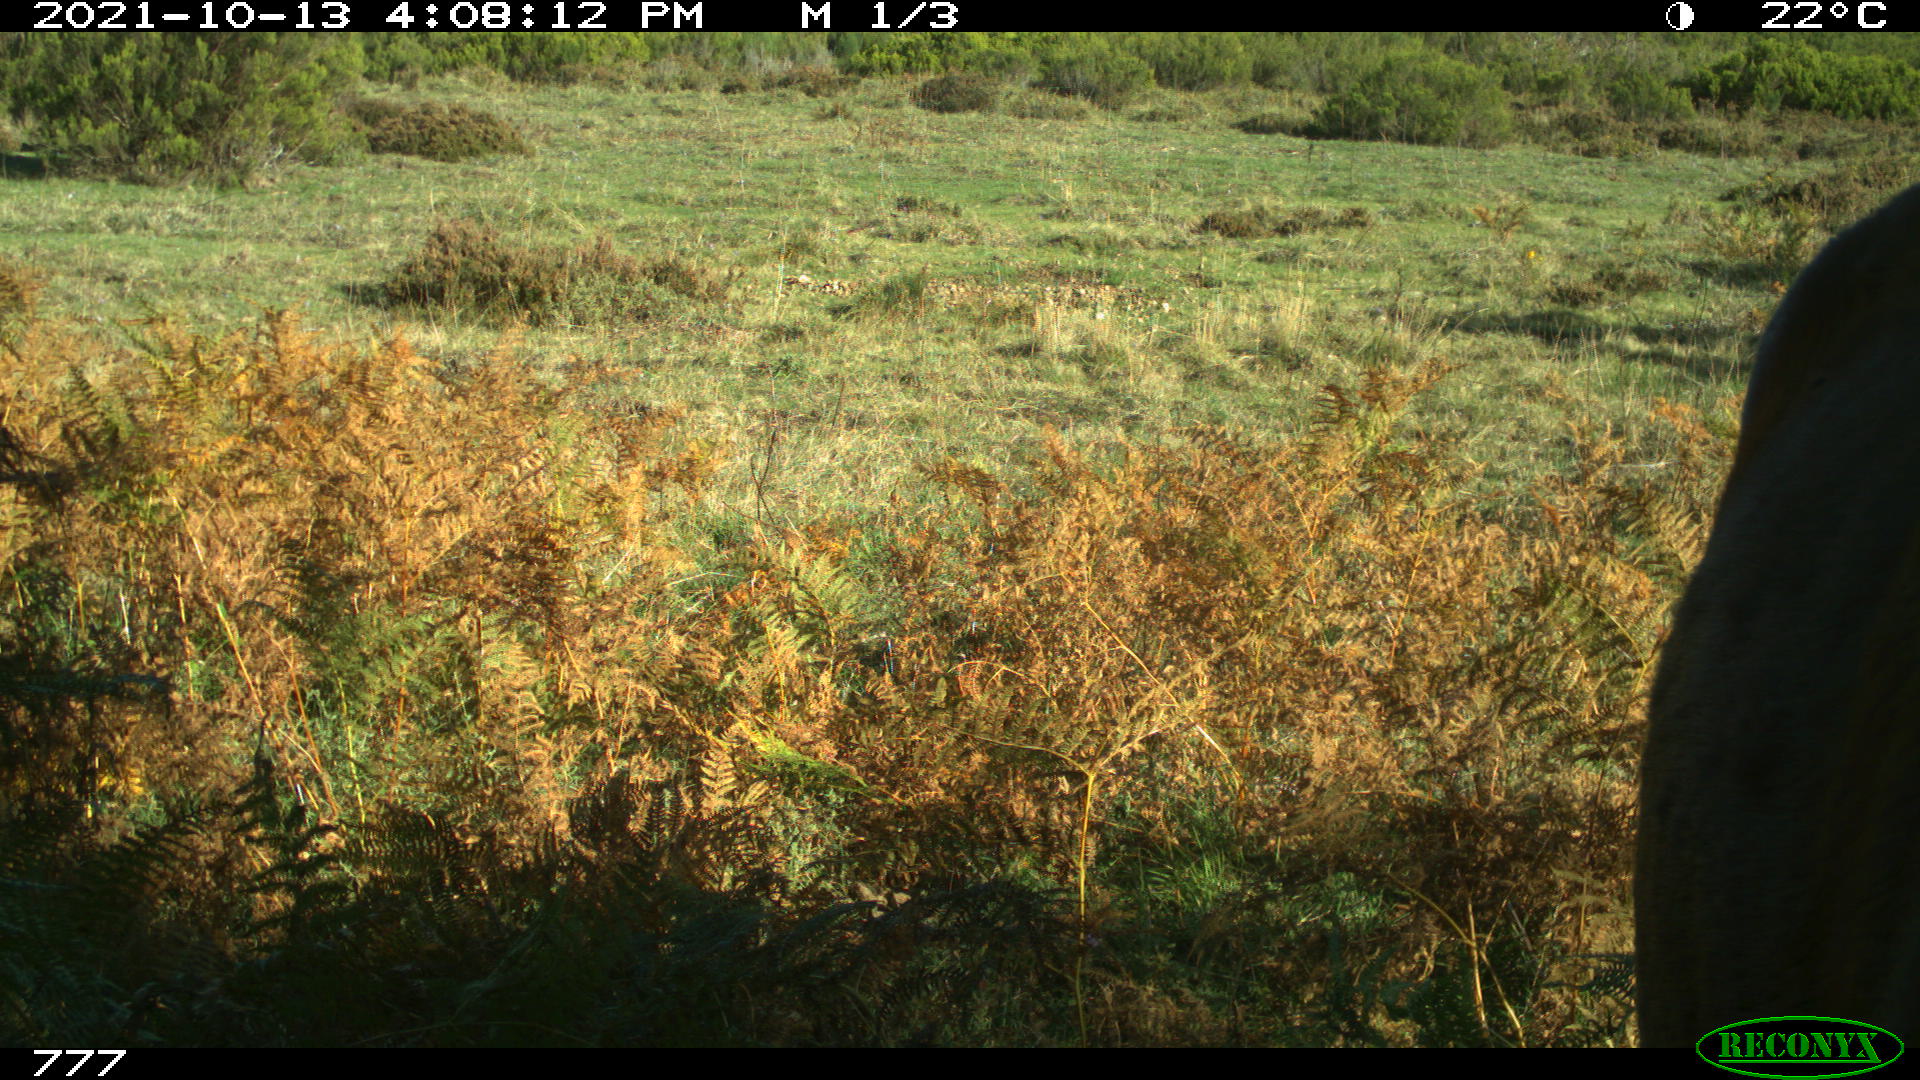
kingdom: Animalia
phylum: Chordata
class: Mammalia
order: Perissodactyla
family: Equidae
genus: Equus
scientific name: Equus caballus
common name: Horse
